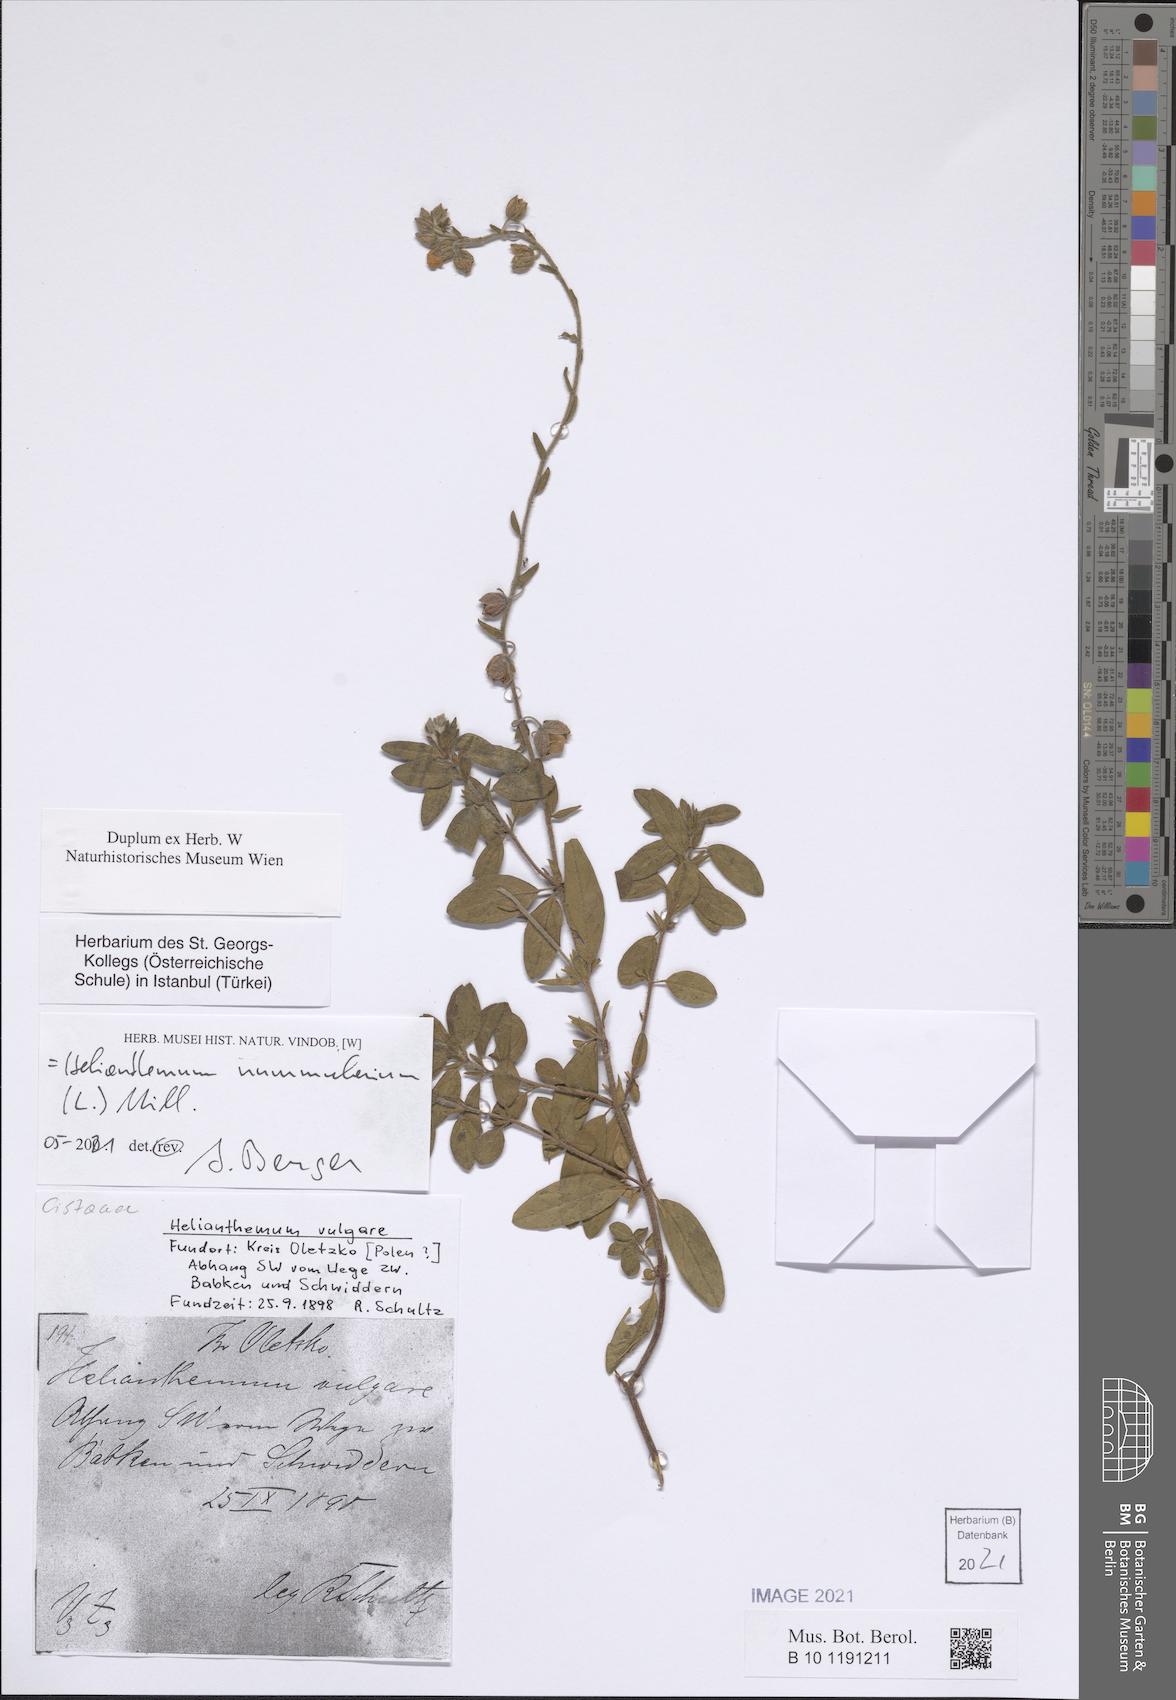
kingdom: Plantae
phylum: Tracheophyta
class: Magnoliopsida
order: Malvales
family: Cistaceae
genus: Helianthemum
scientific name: Helianthemum nummularium
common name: Common rock-rose
